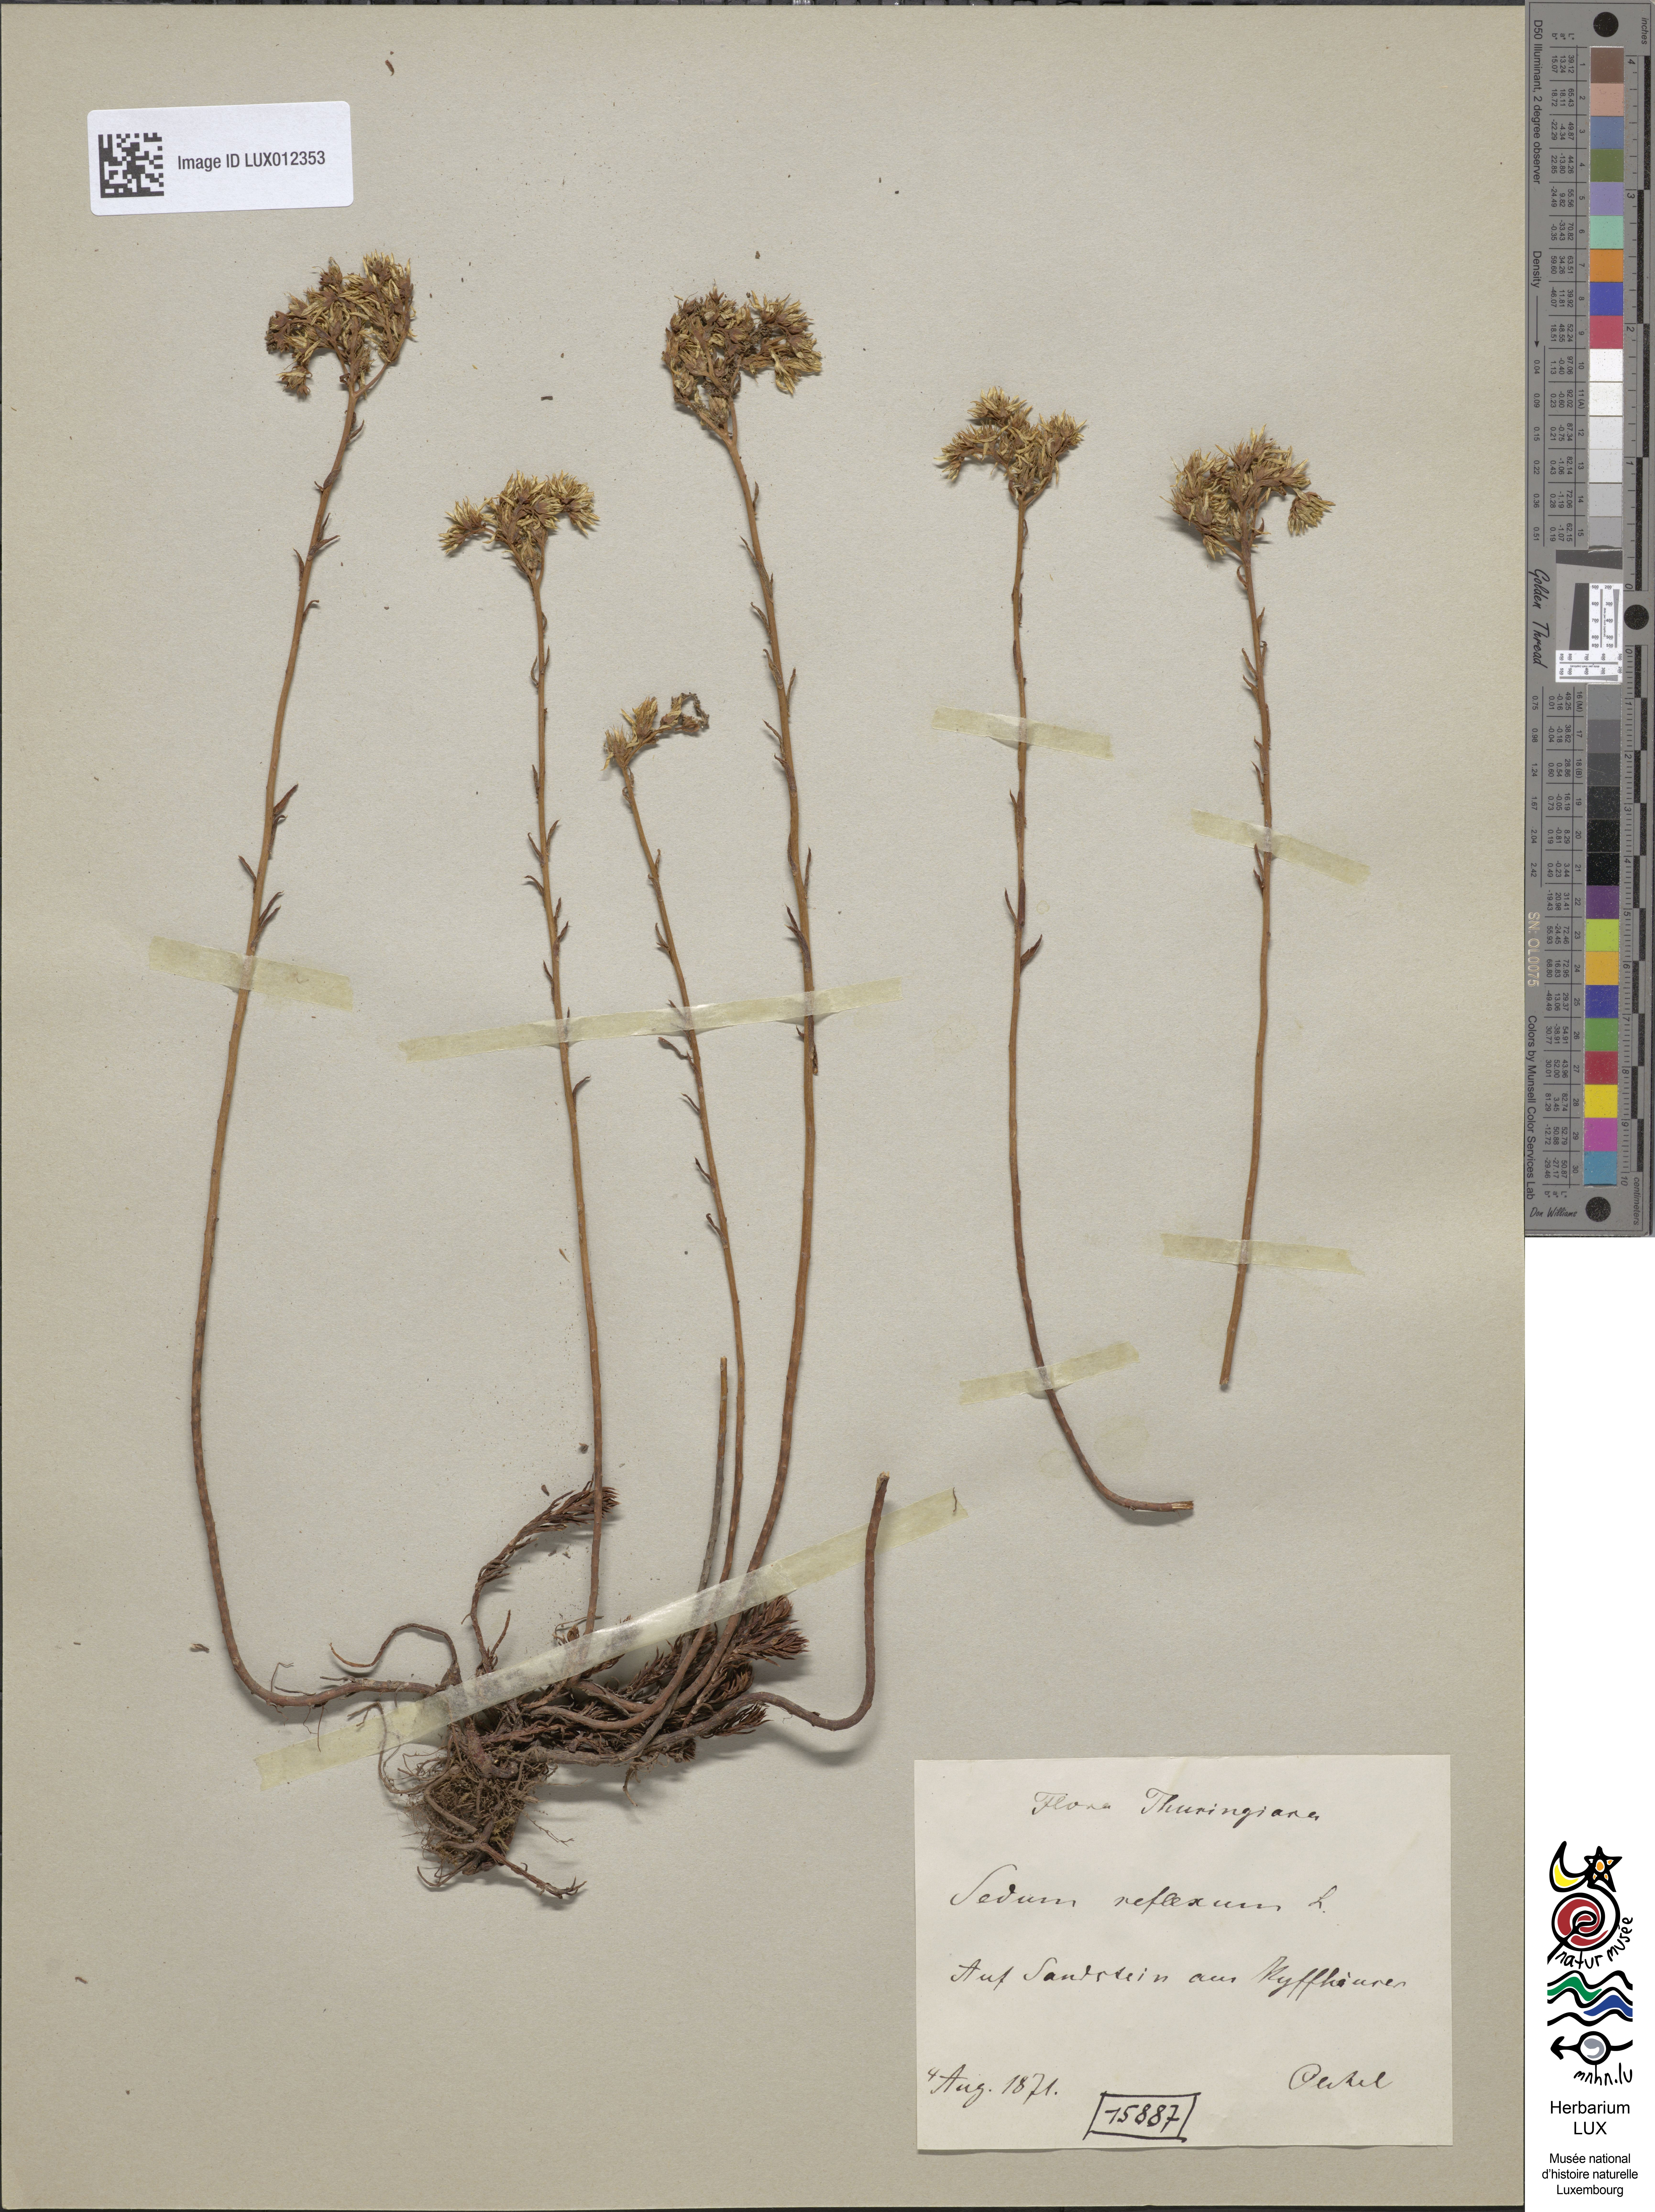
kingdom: Plantae
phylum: Tracheophyta
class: Magnoliopsida
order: Saxifragales
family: Crassulaceae
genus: Petrosedum
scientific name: Petrosedum rupestre
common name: Jenny's stonecrop
